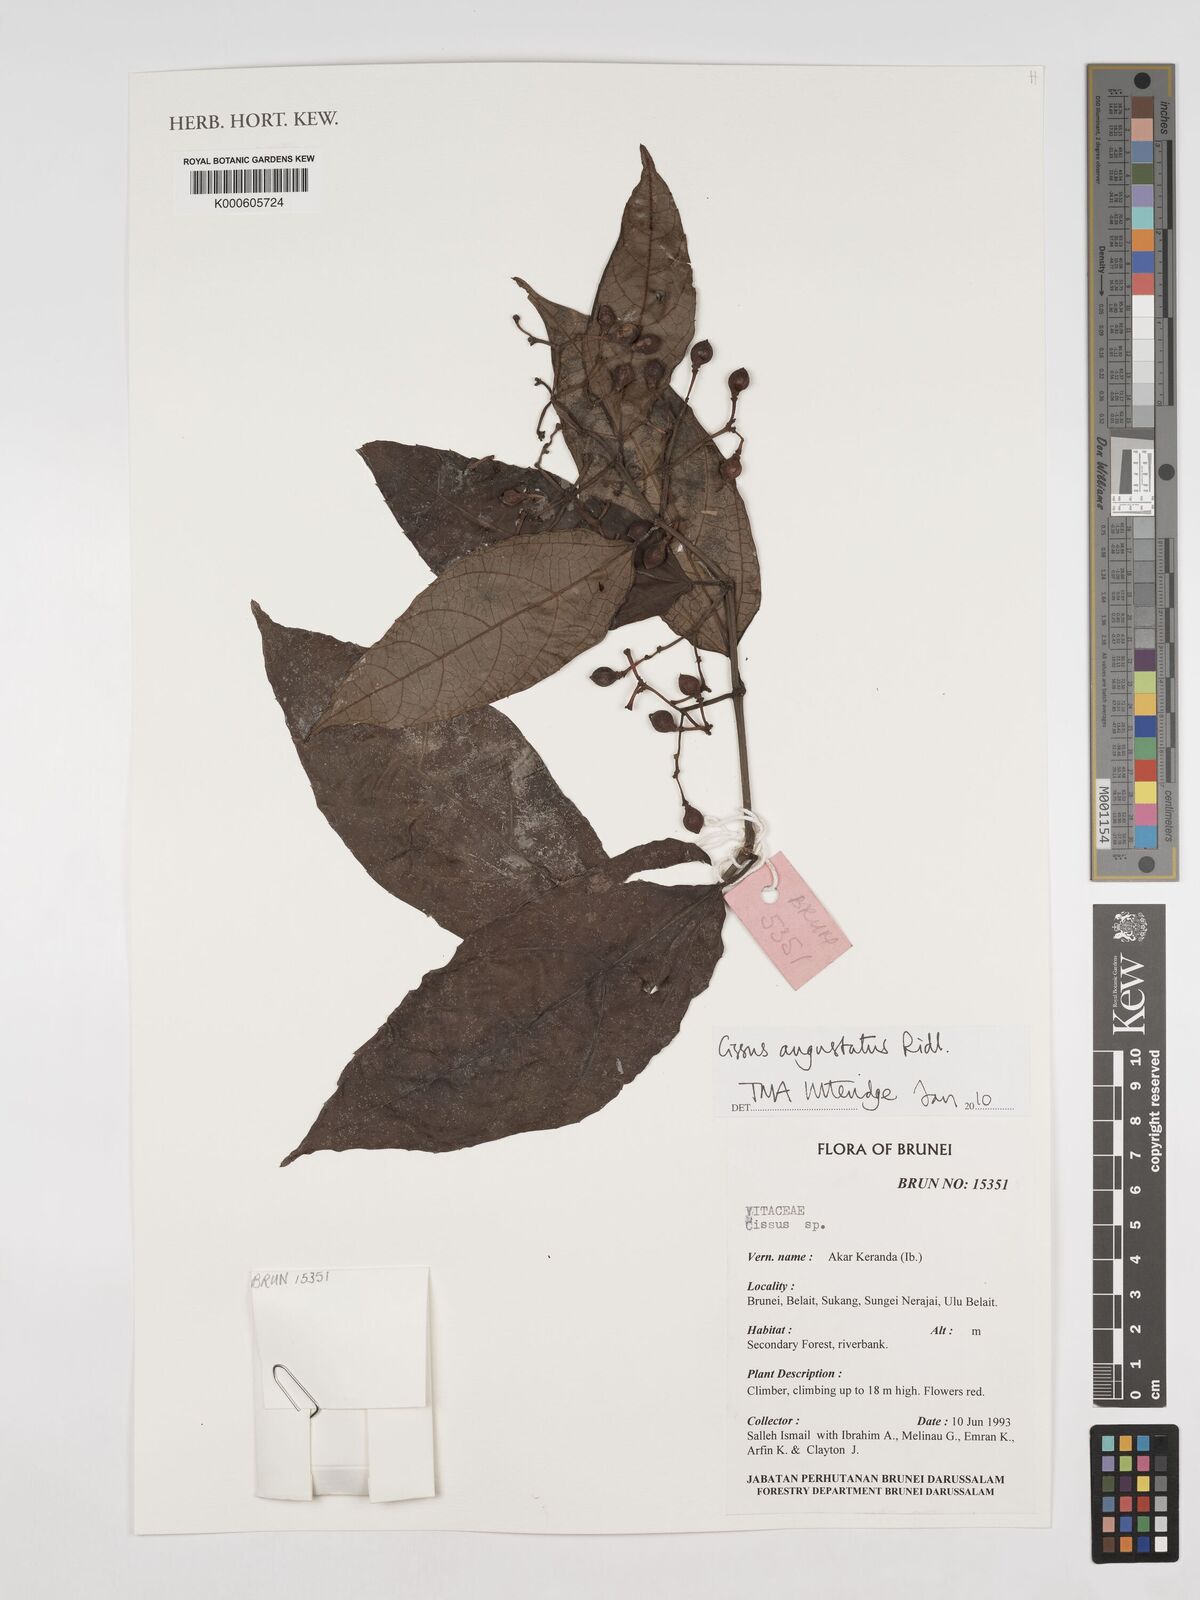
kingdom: Plantae
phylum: Tracheophyta
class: Magnoliopsida
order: Vitales
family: Vitaceae
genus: Cissus
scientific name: Cissus angustata
